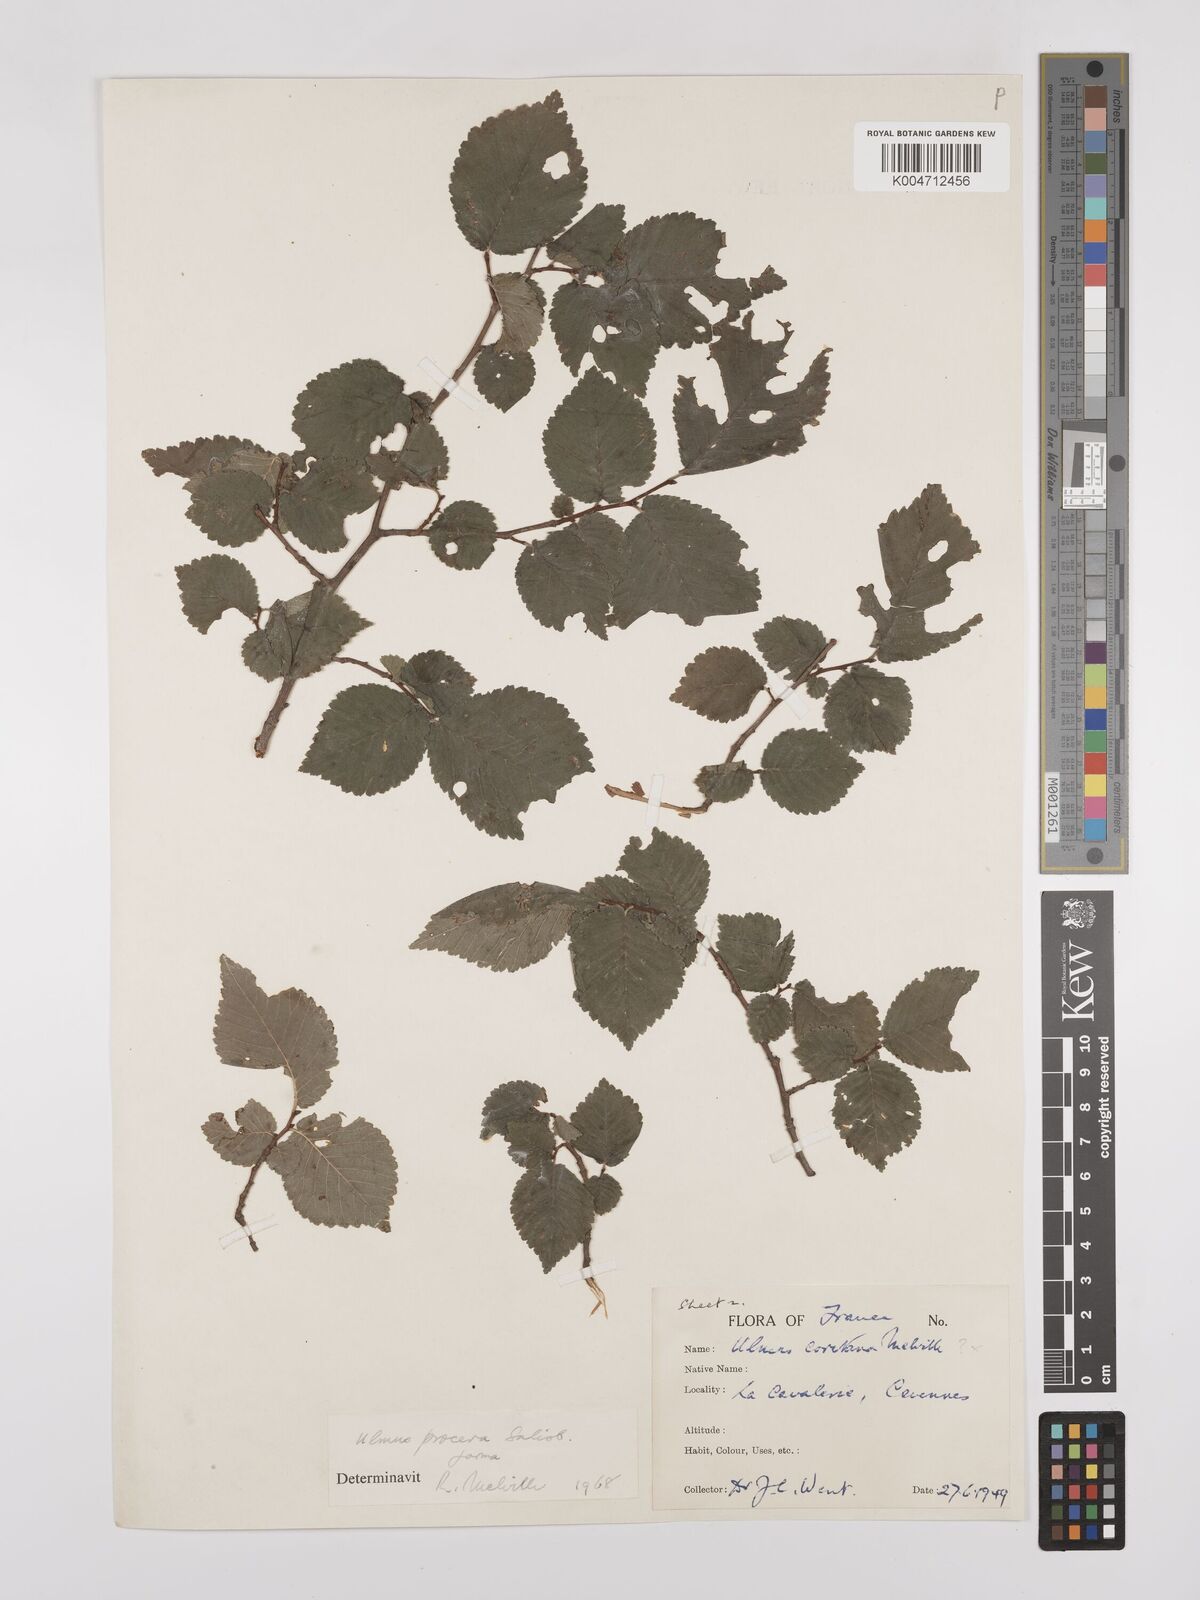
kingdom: Plantae
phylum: Tracheophyta
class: Magnoliopsida
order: Rosales
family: Ulmaceae
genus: Ulmus
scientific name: Ulmus minor
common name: Small-leaved elm
